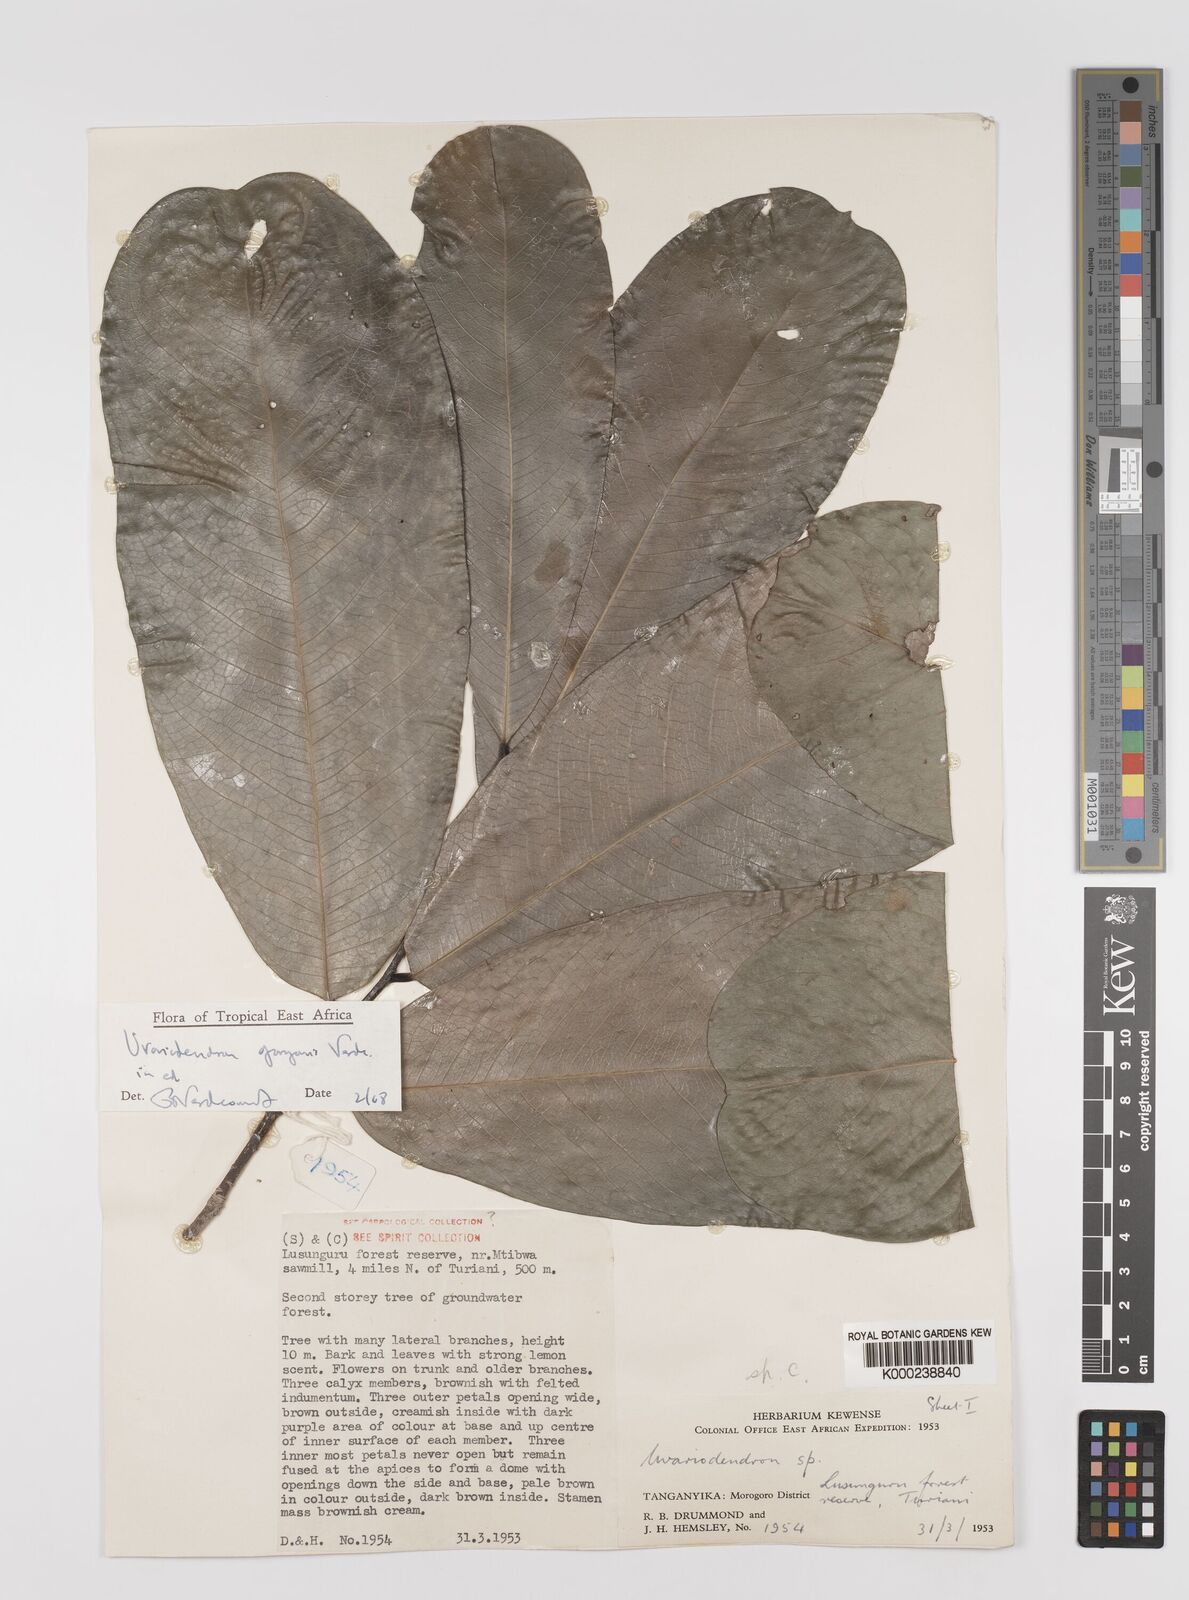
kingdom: Plantae
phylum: Tracheophyta
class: Magnoliopsida
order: Magnoliales
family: Annonaceae
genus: Uvariodendron
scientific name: Uvariodendron gorgonis
